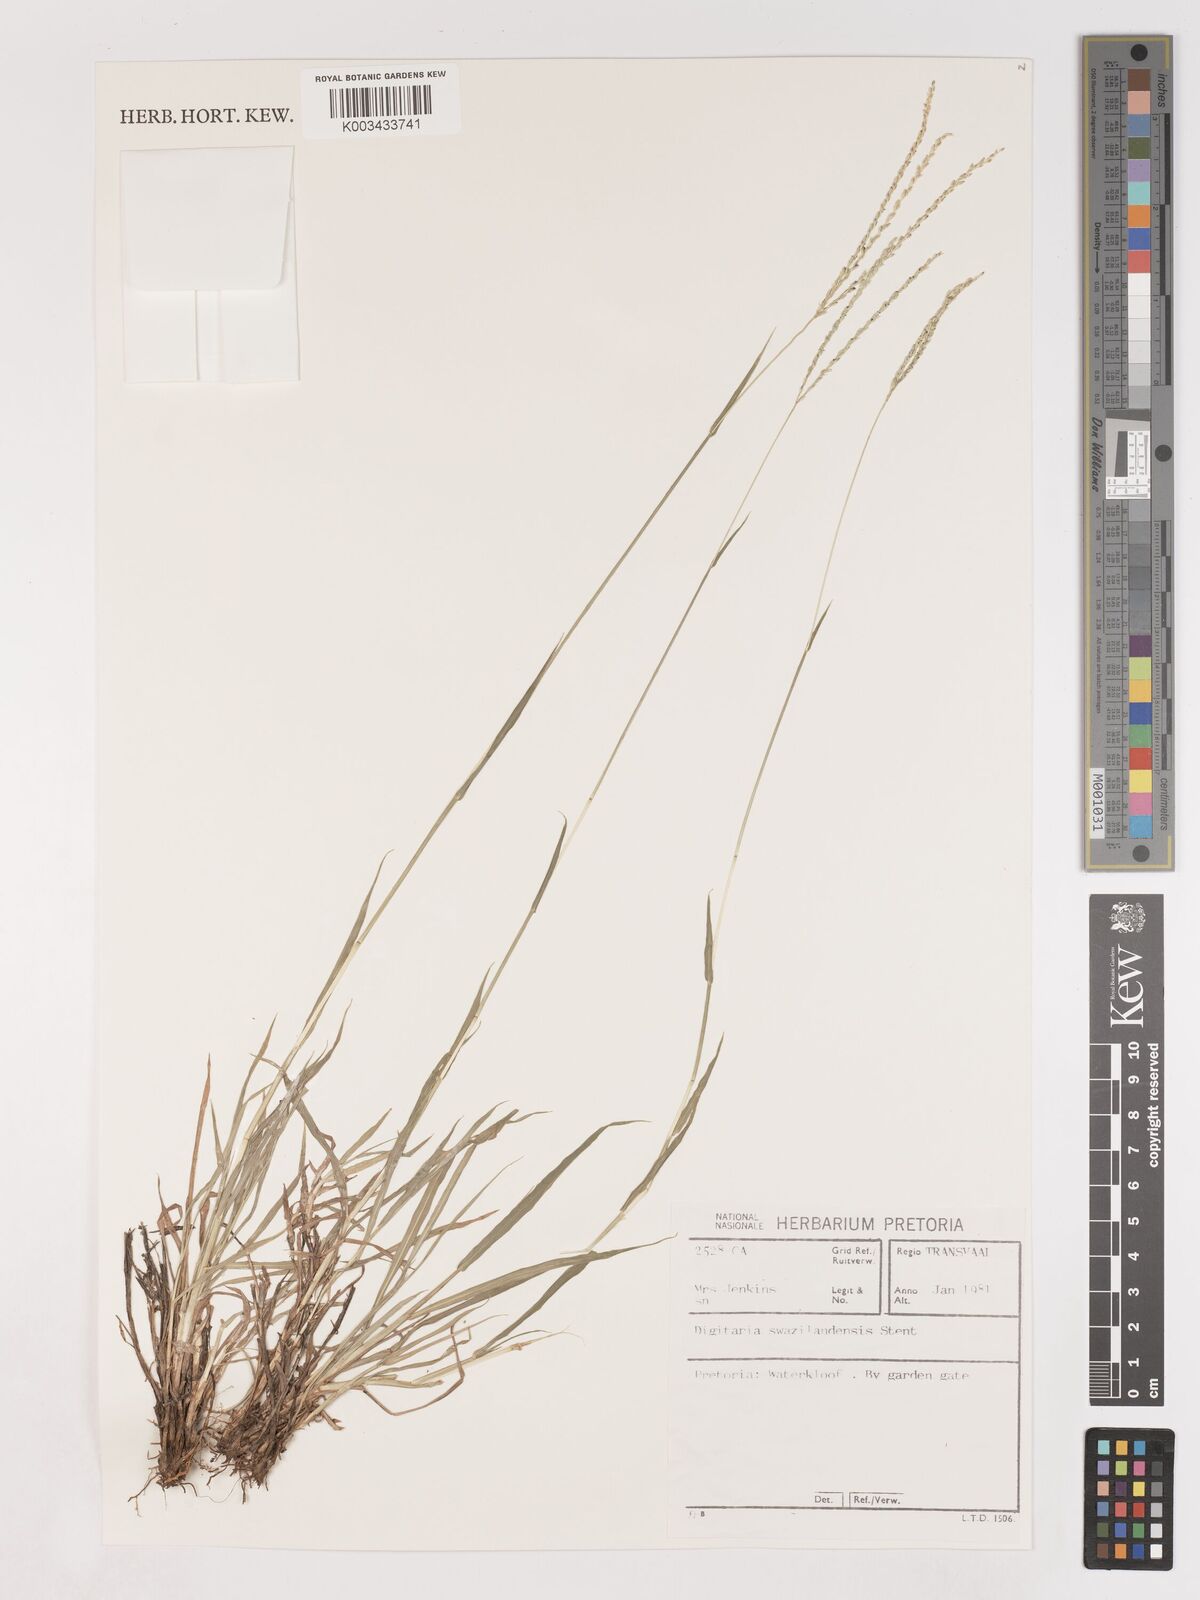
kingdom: Plantae
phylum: Tracheophyta
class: Liliopsida
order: Poales
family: Poaceae
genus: Digitaria
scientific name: Digitaria didactyla
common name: Blue couch
